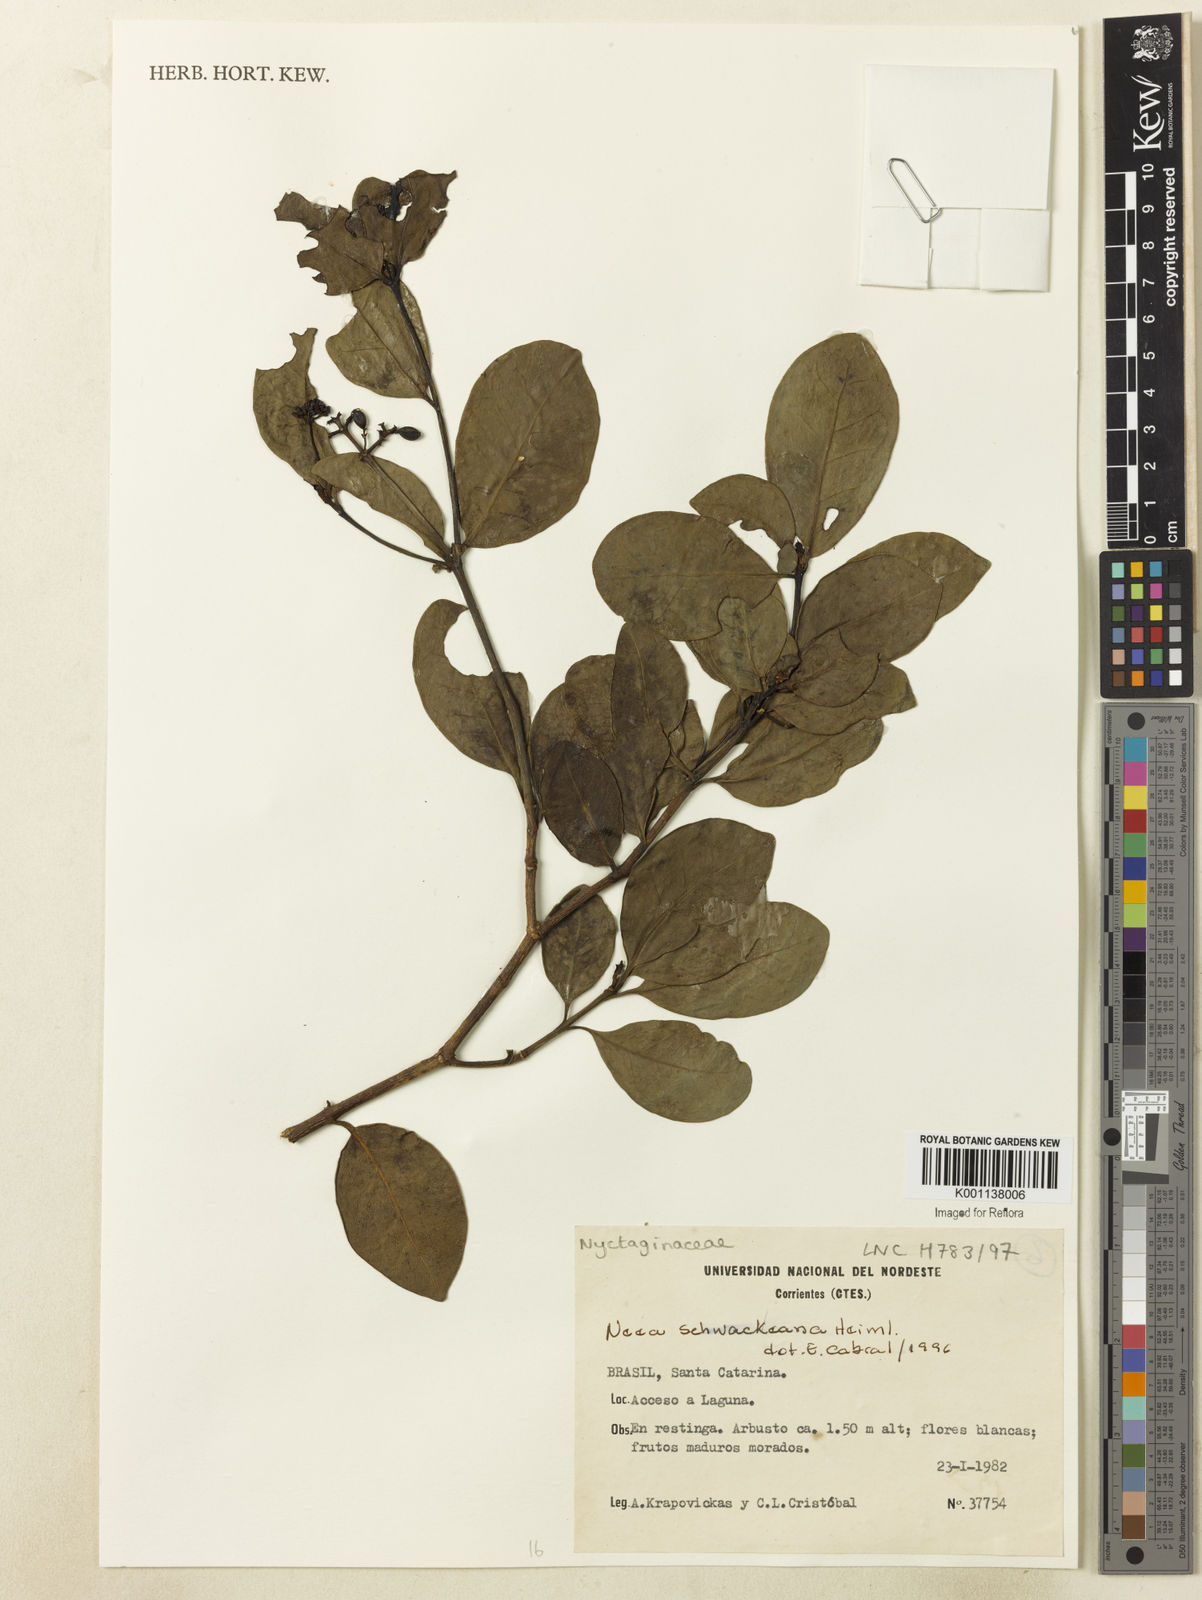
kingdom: Plantae
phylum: Tracheophyta
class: Magnoliopsida
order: Caryophyllales
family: Nyctaginaceae
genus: Neea
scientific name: Neea schwackeana
